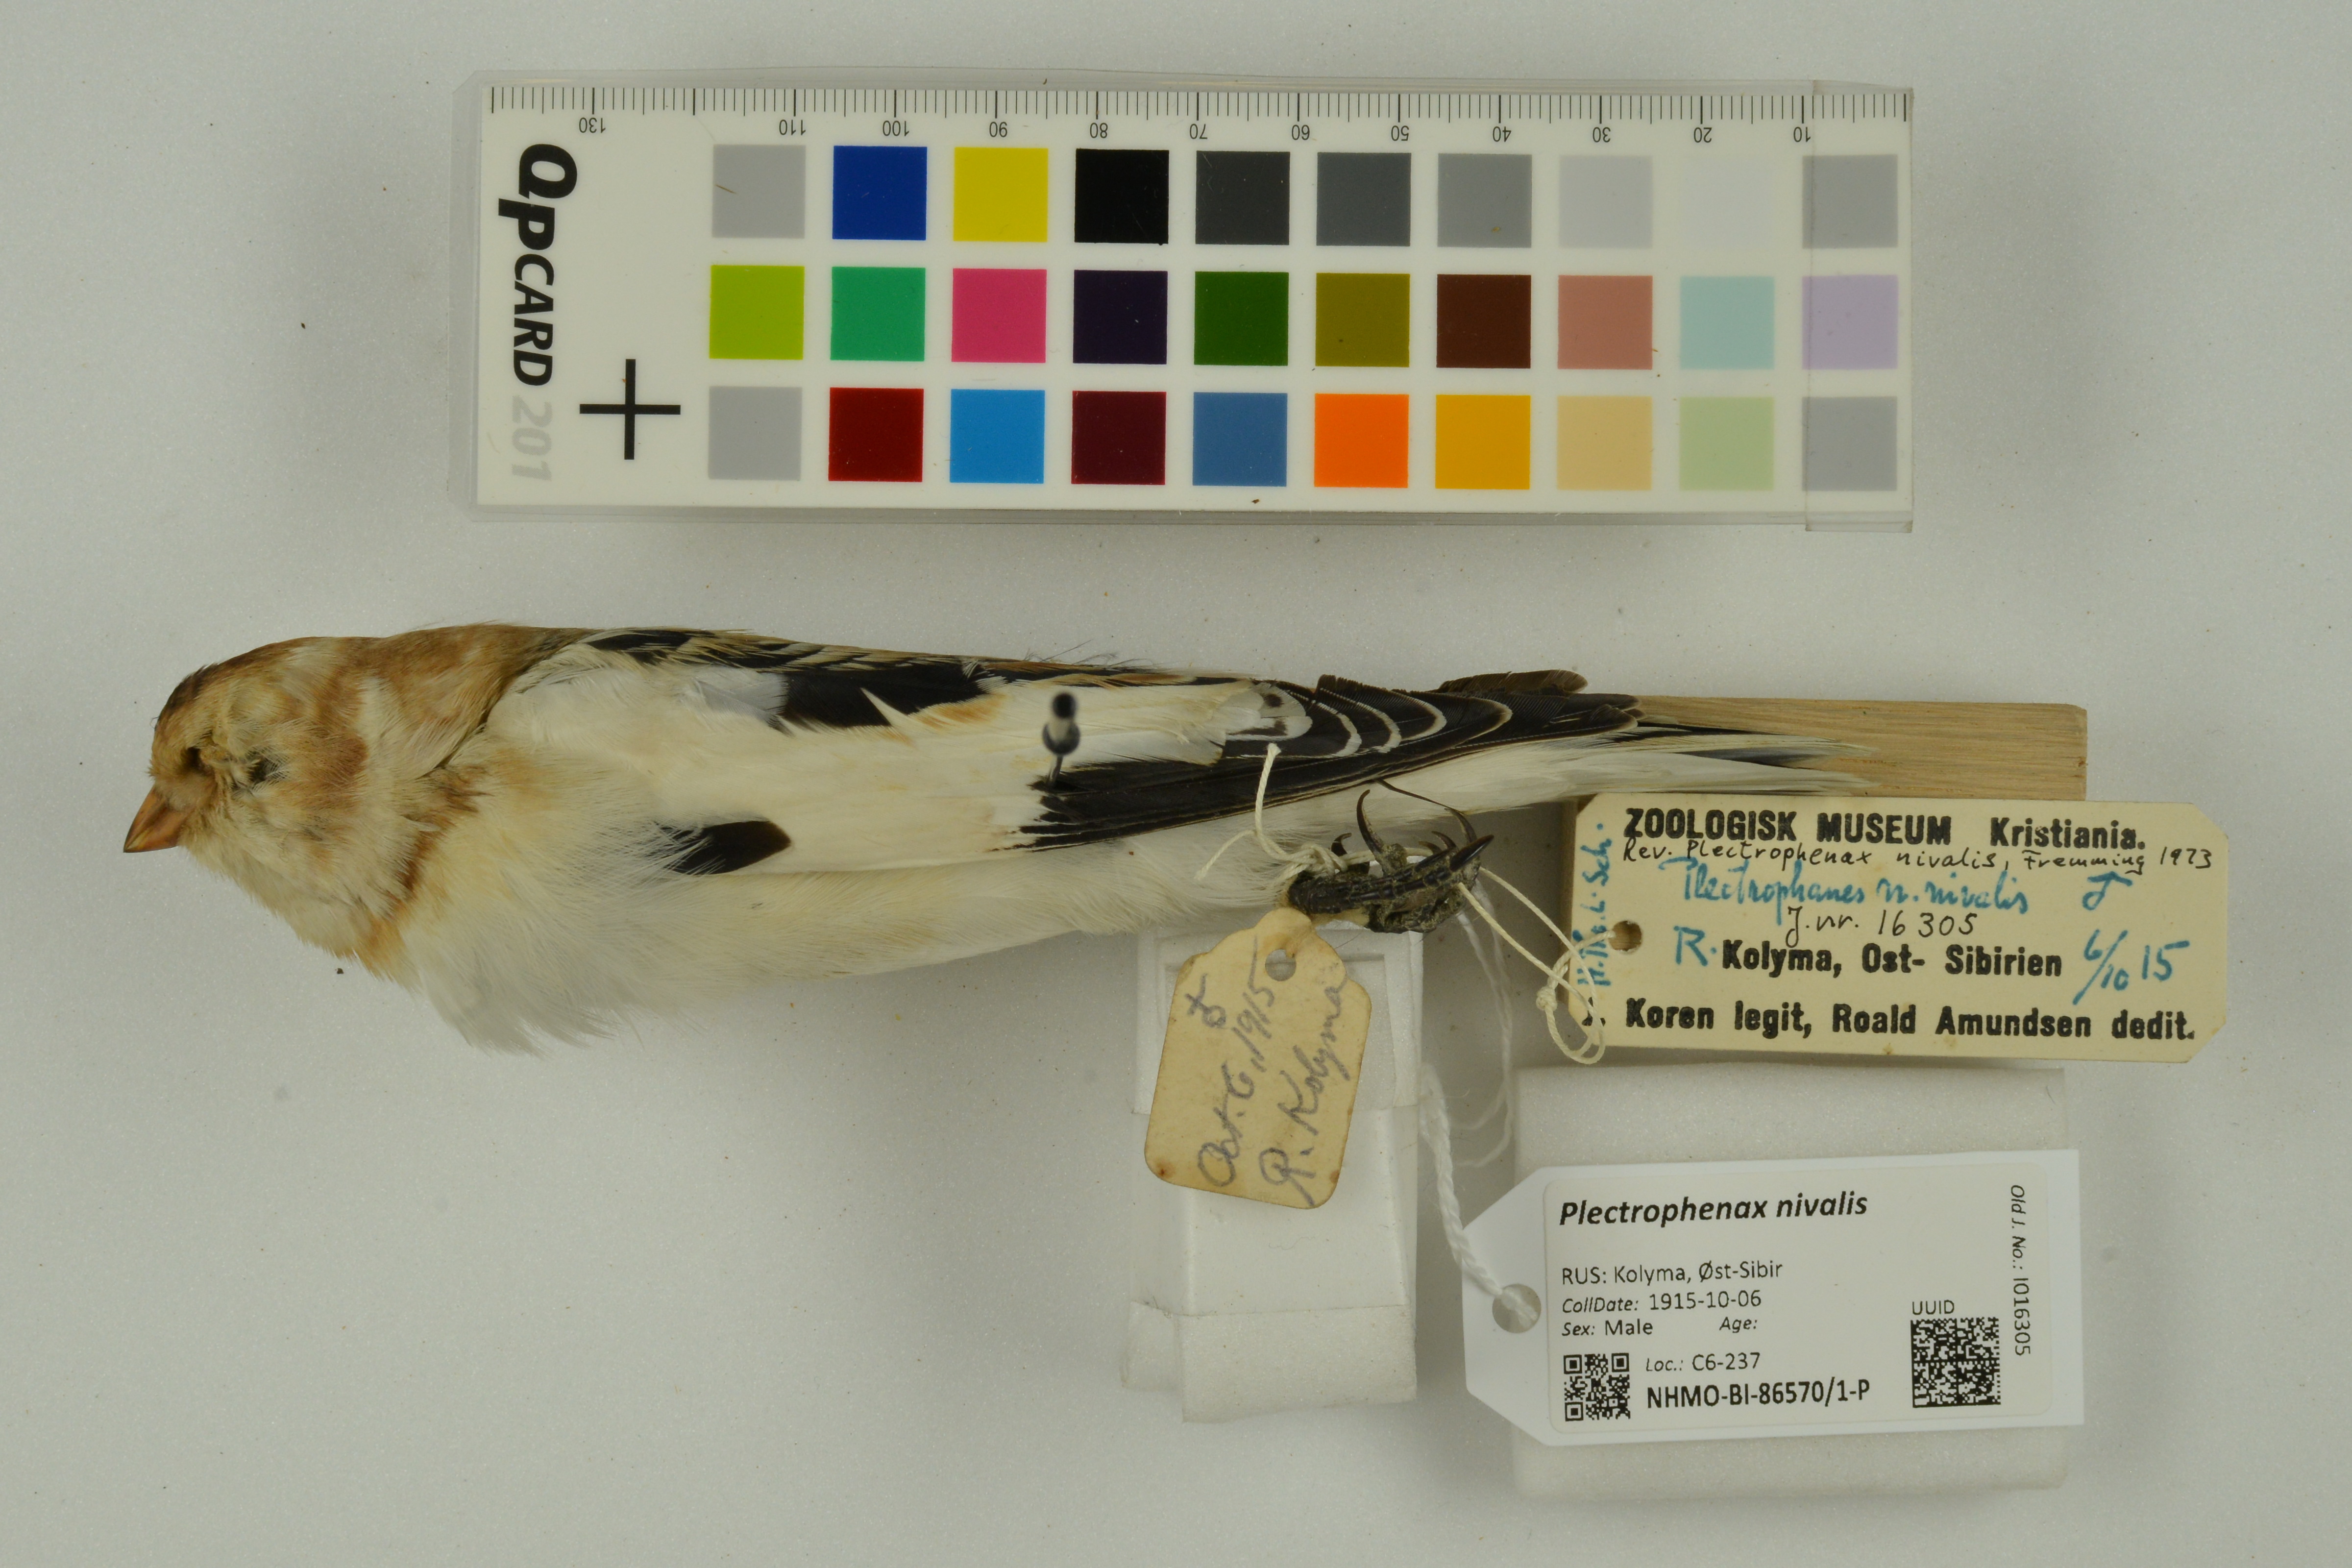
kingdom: Animalia
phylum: Chordata
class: Aves
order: Passeriformes
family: Calcariidae
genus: Plectrophenax
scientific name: Plectrophenax nivalis
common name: Snow bunting
